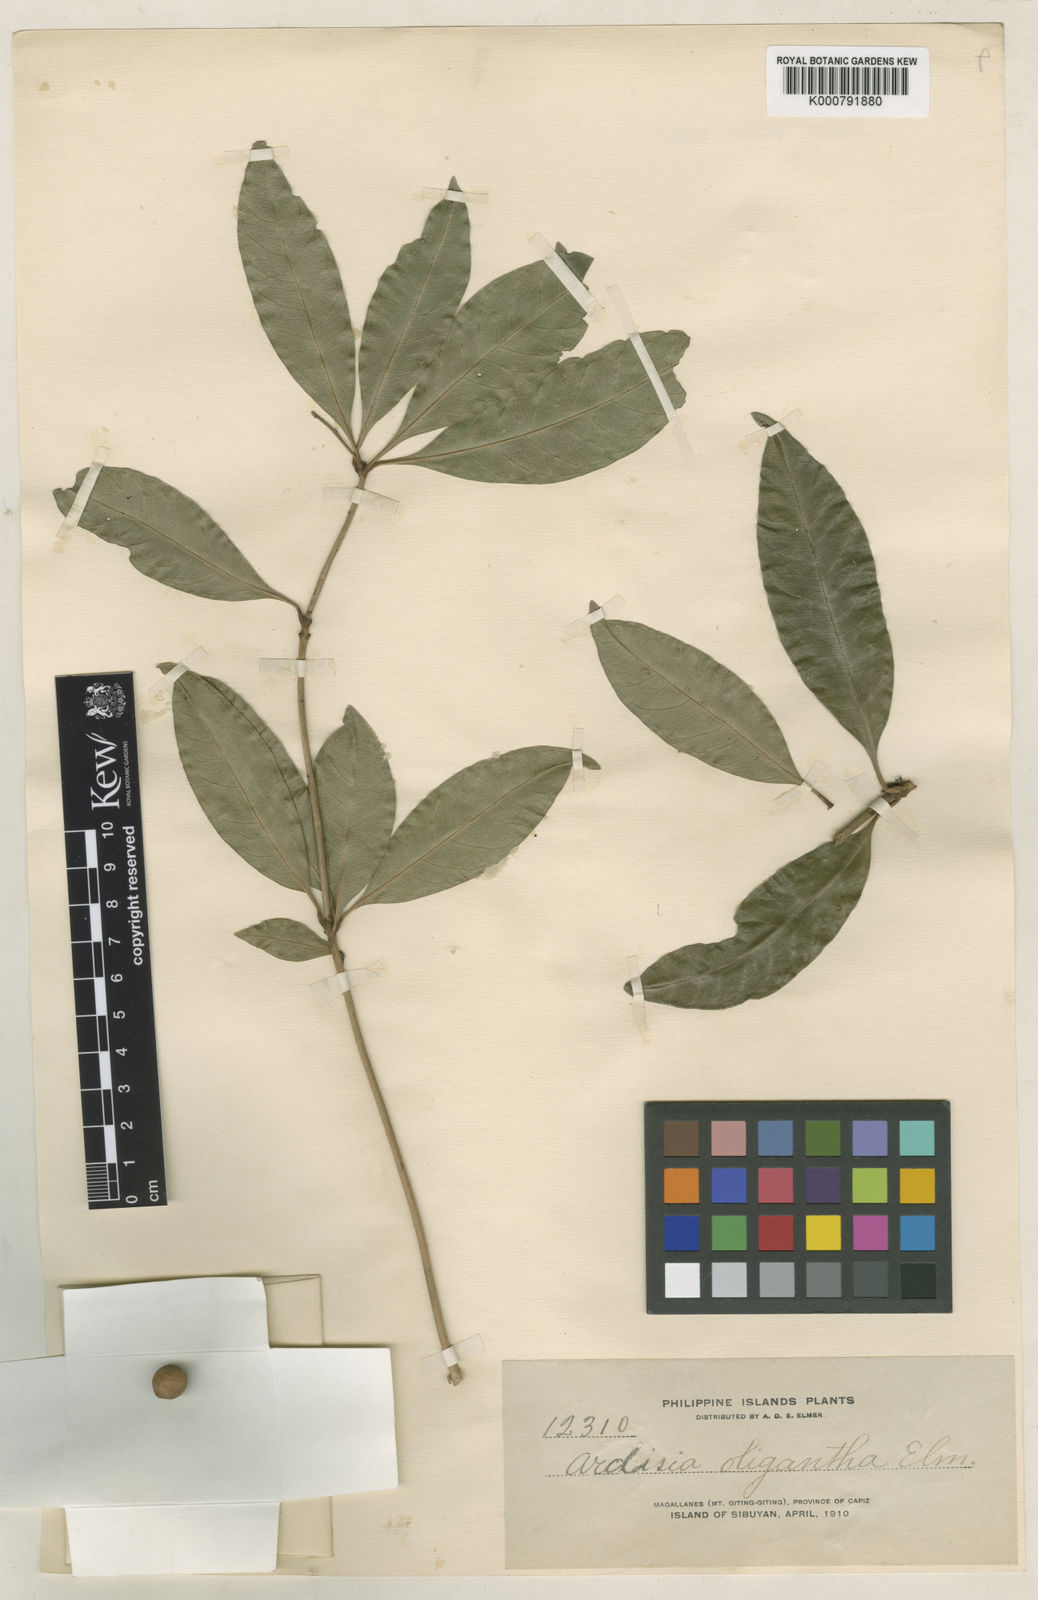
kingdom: Plantae
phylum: Tracheophyta
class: Magnoliopsida
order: Ericales
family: Primulaceae
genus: Ardisia
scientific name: Ardisia serrata
